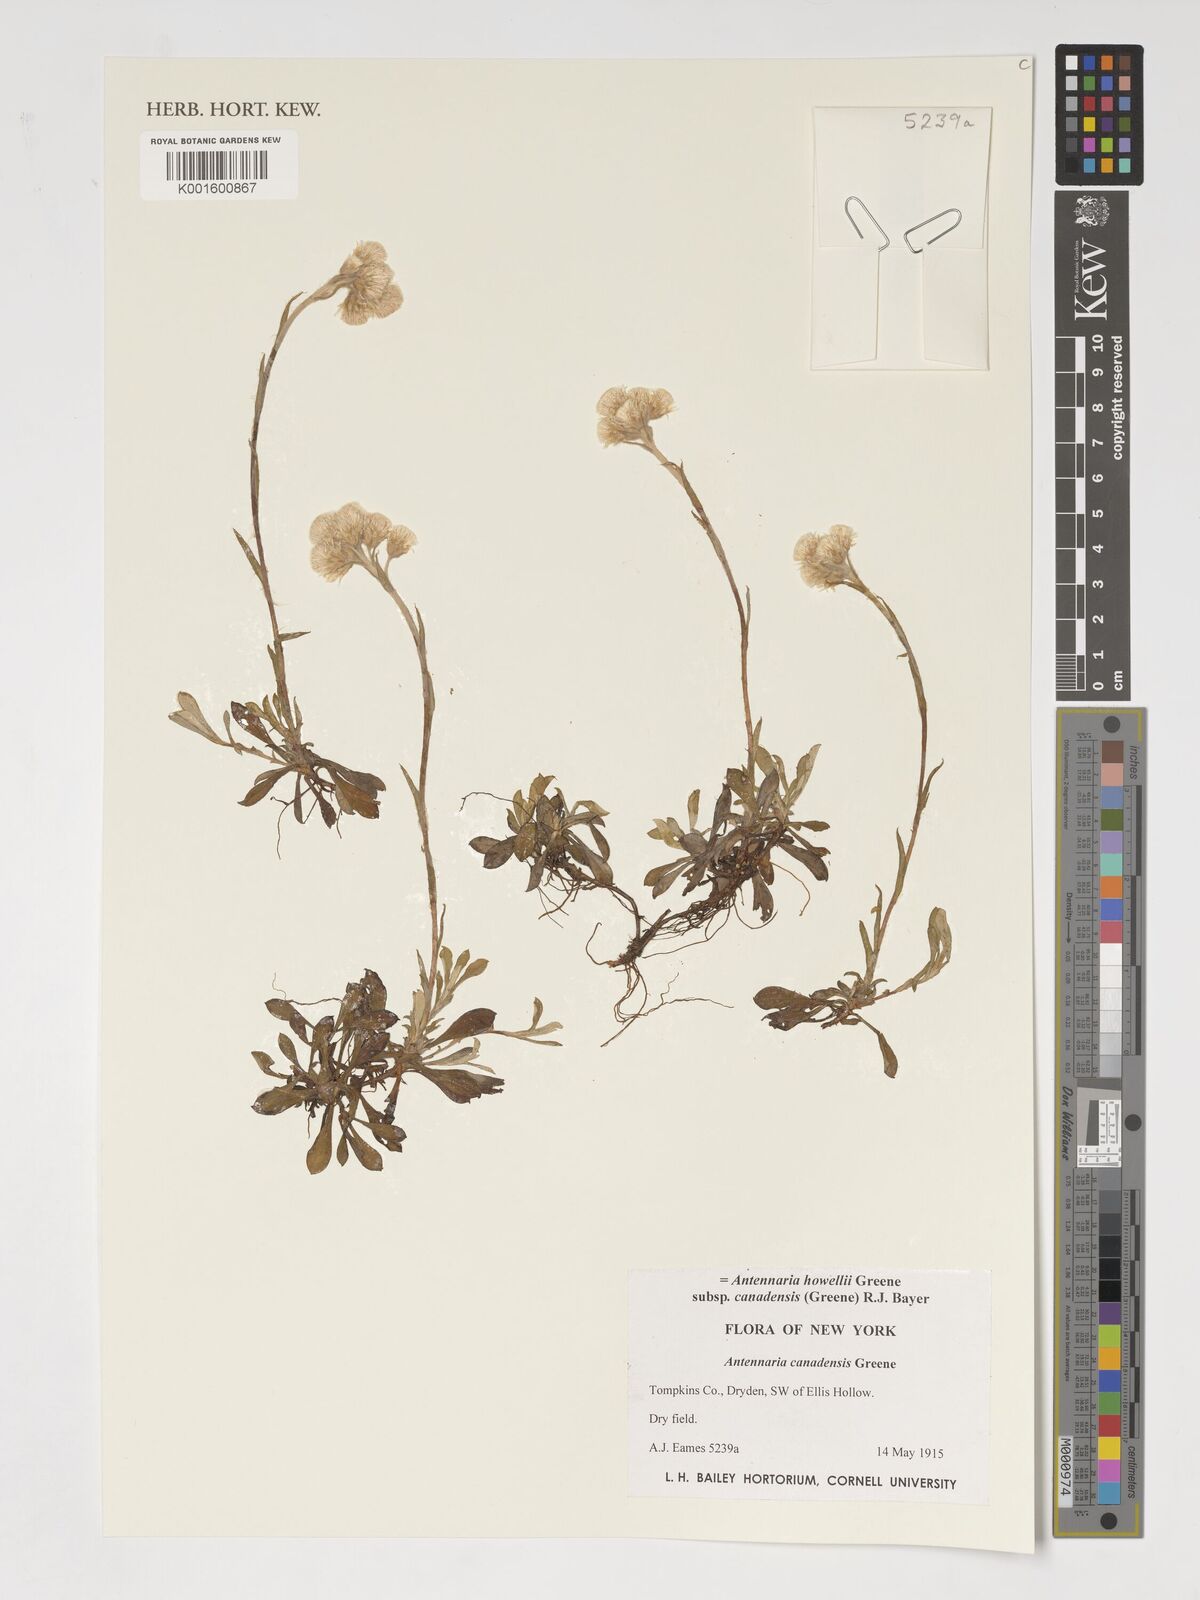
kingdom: Plantae
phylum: Tracheophyta
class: Magnoliopsida
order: Asterales
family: Asteraceae
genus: Antennaria
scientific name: Antennaria howellii
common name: Howell's pussytoes
